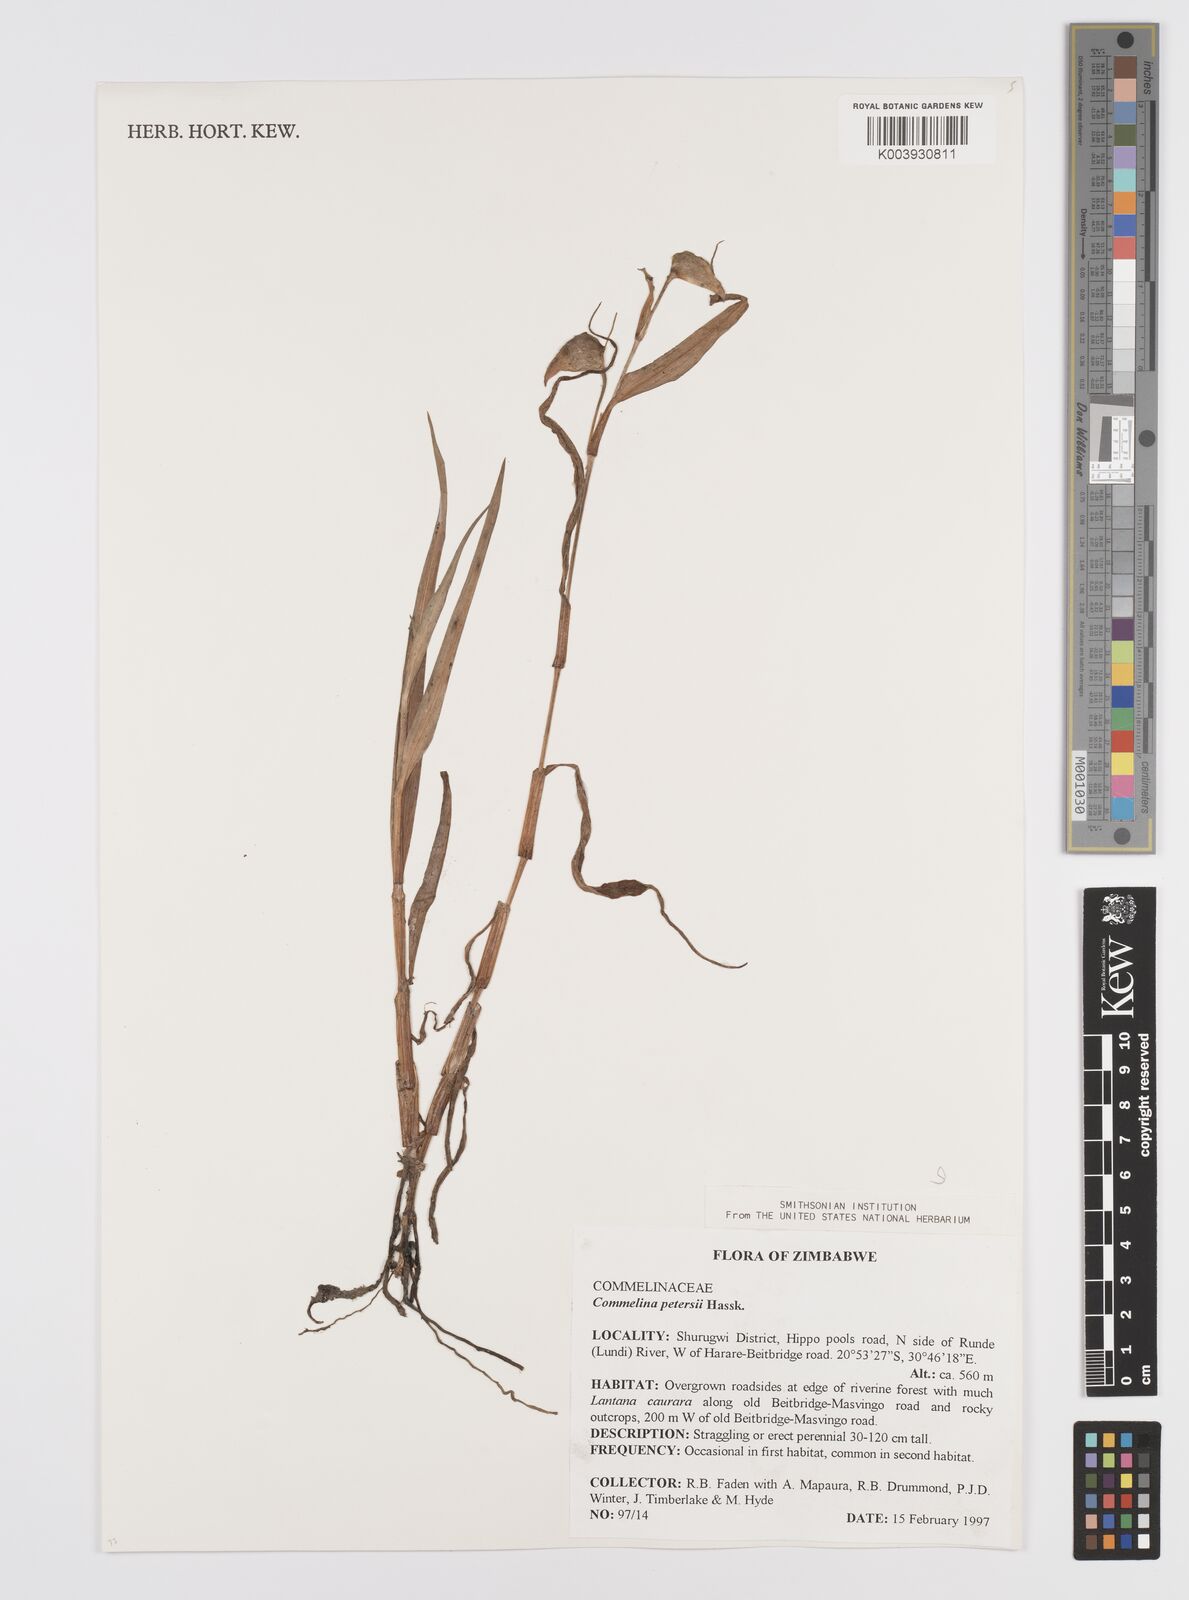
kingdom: Plantae
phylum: Tracheophyta
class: Liliopsida
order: Commelinales
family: Commelinaceae
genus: Commelina
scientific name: Commelina petersii
